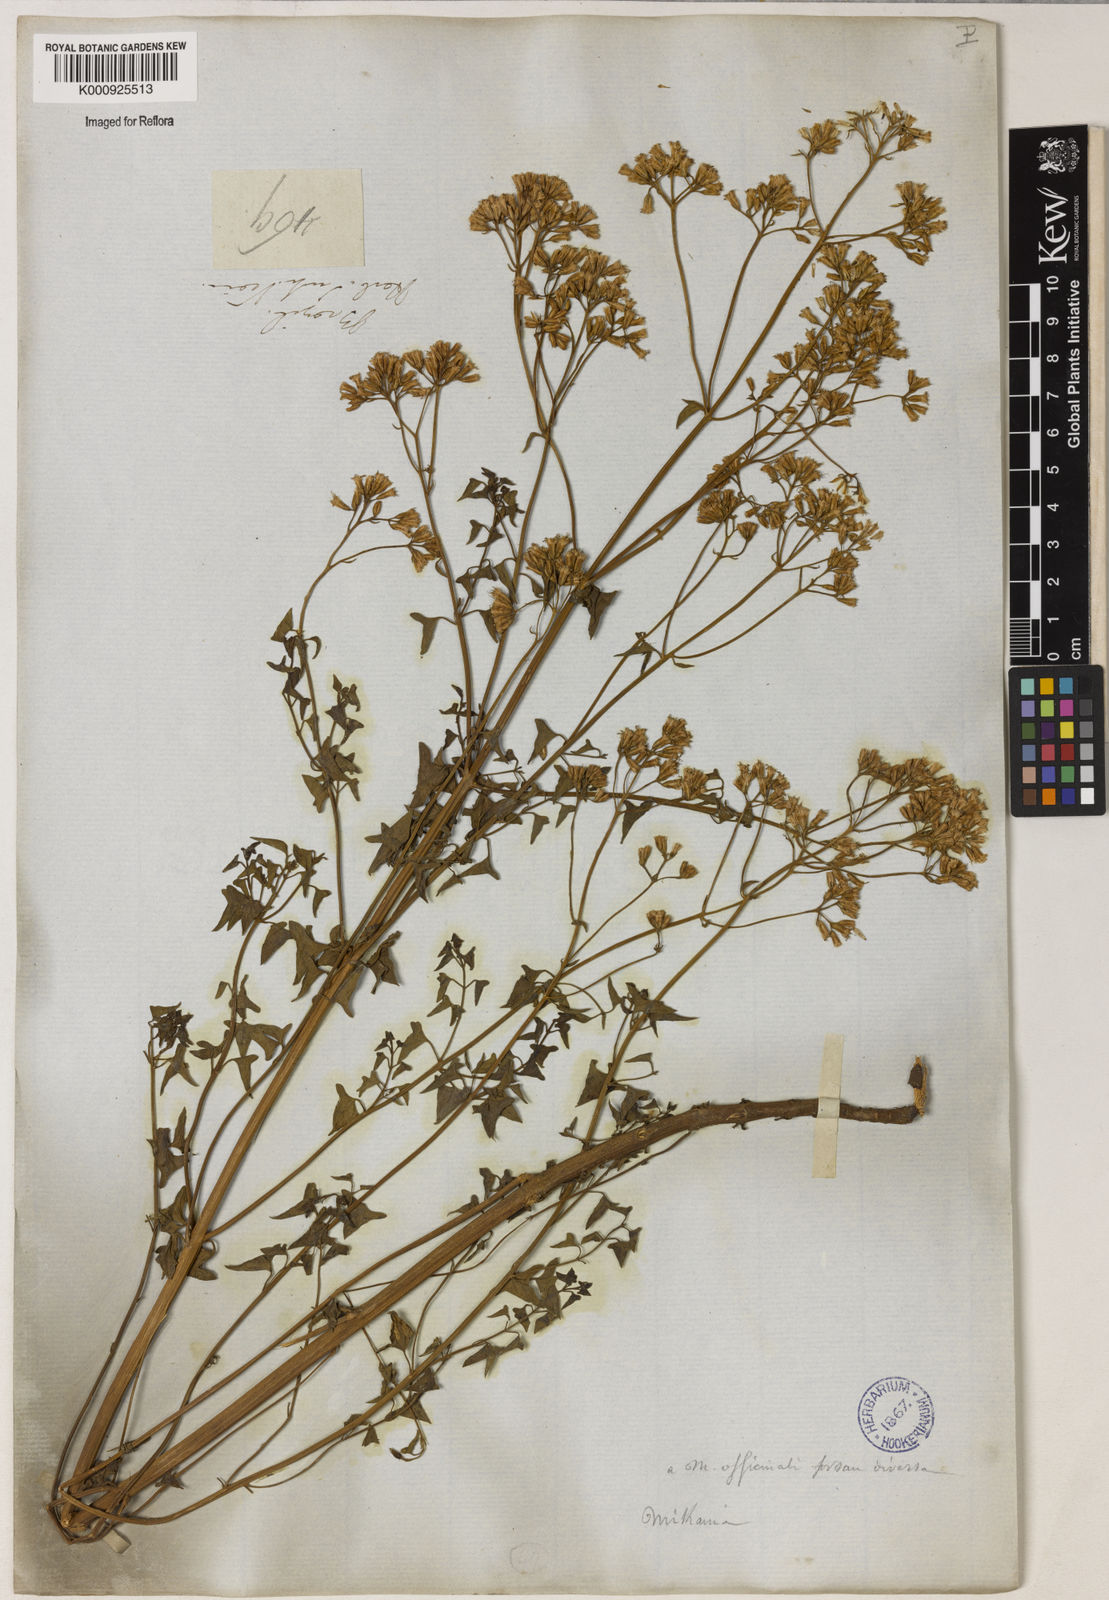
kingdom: Plantae
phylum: Tracheophyta
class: Magnoliopsida
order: Asterales
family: Asteraceae
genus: Mikania
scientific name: Mikania officinalis
